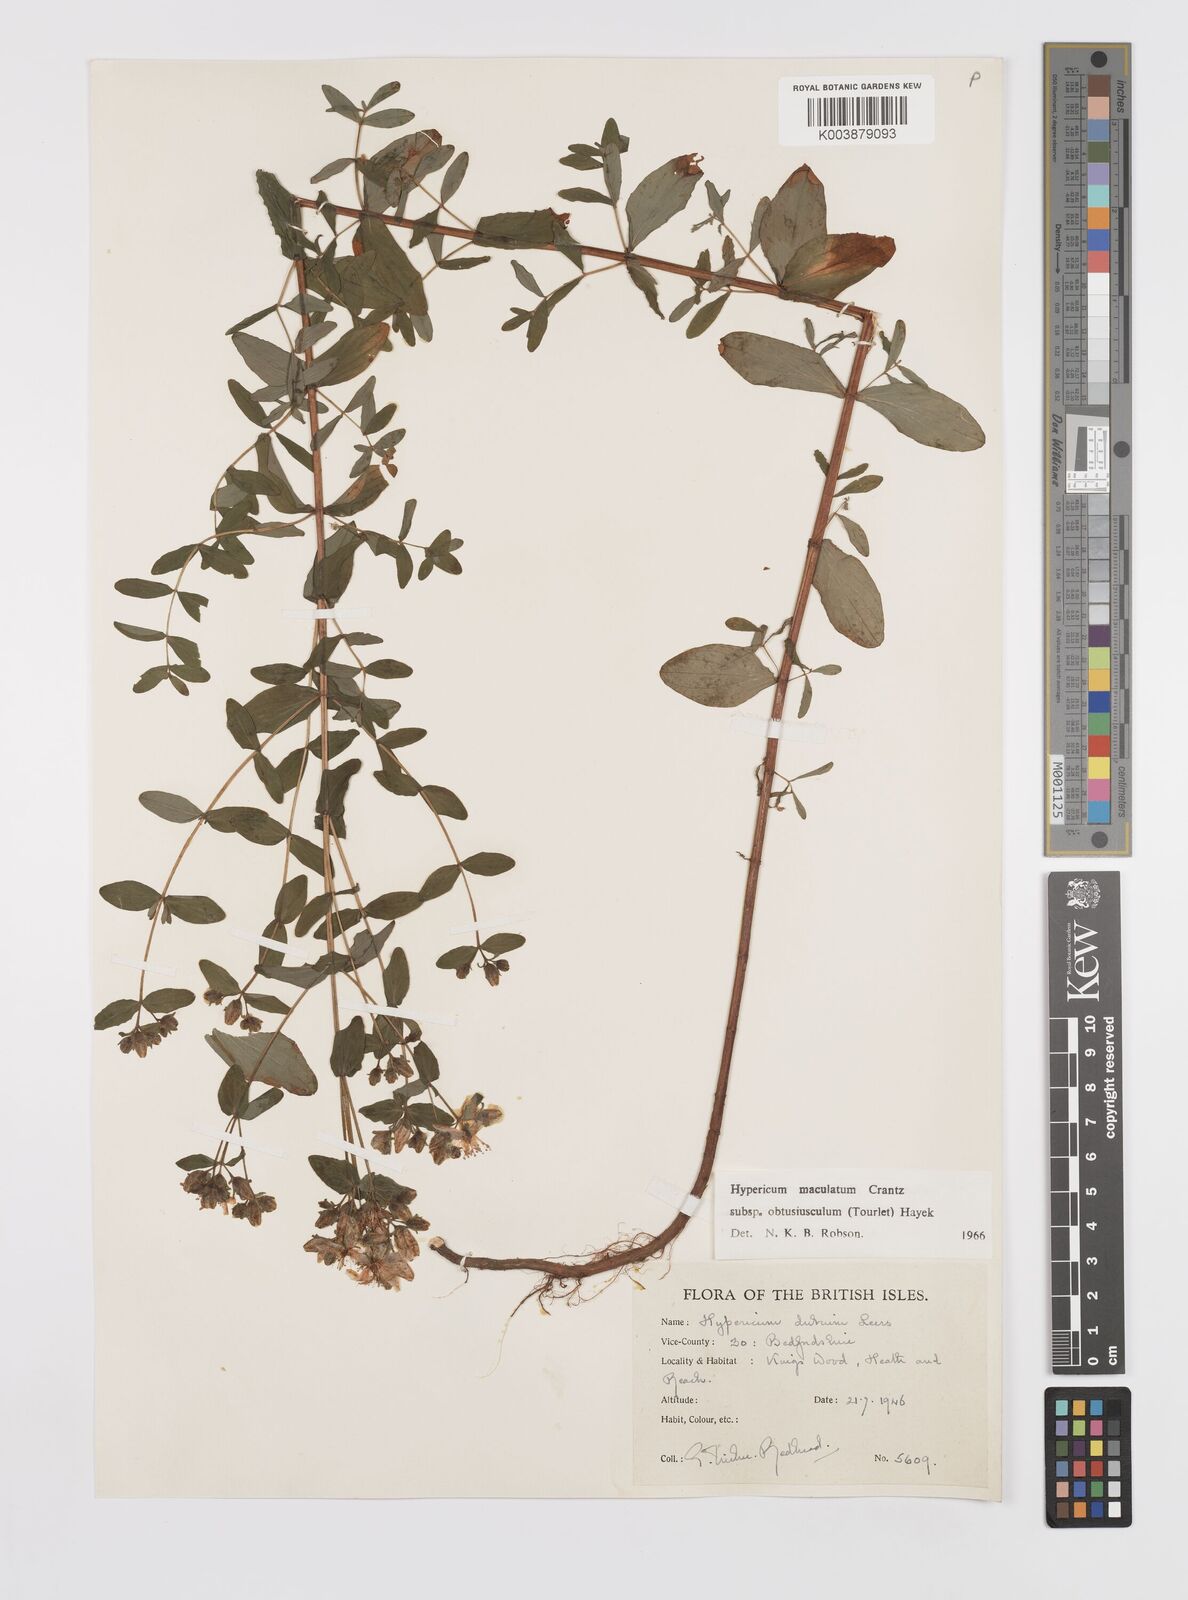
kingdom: Plantae
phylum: Tracheophyta
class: Magnoliopsida
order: Malpighiales
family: Hypericaceae
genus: Hypericum
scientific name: Hypericum dubium
